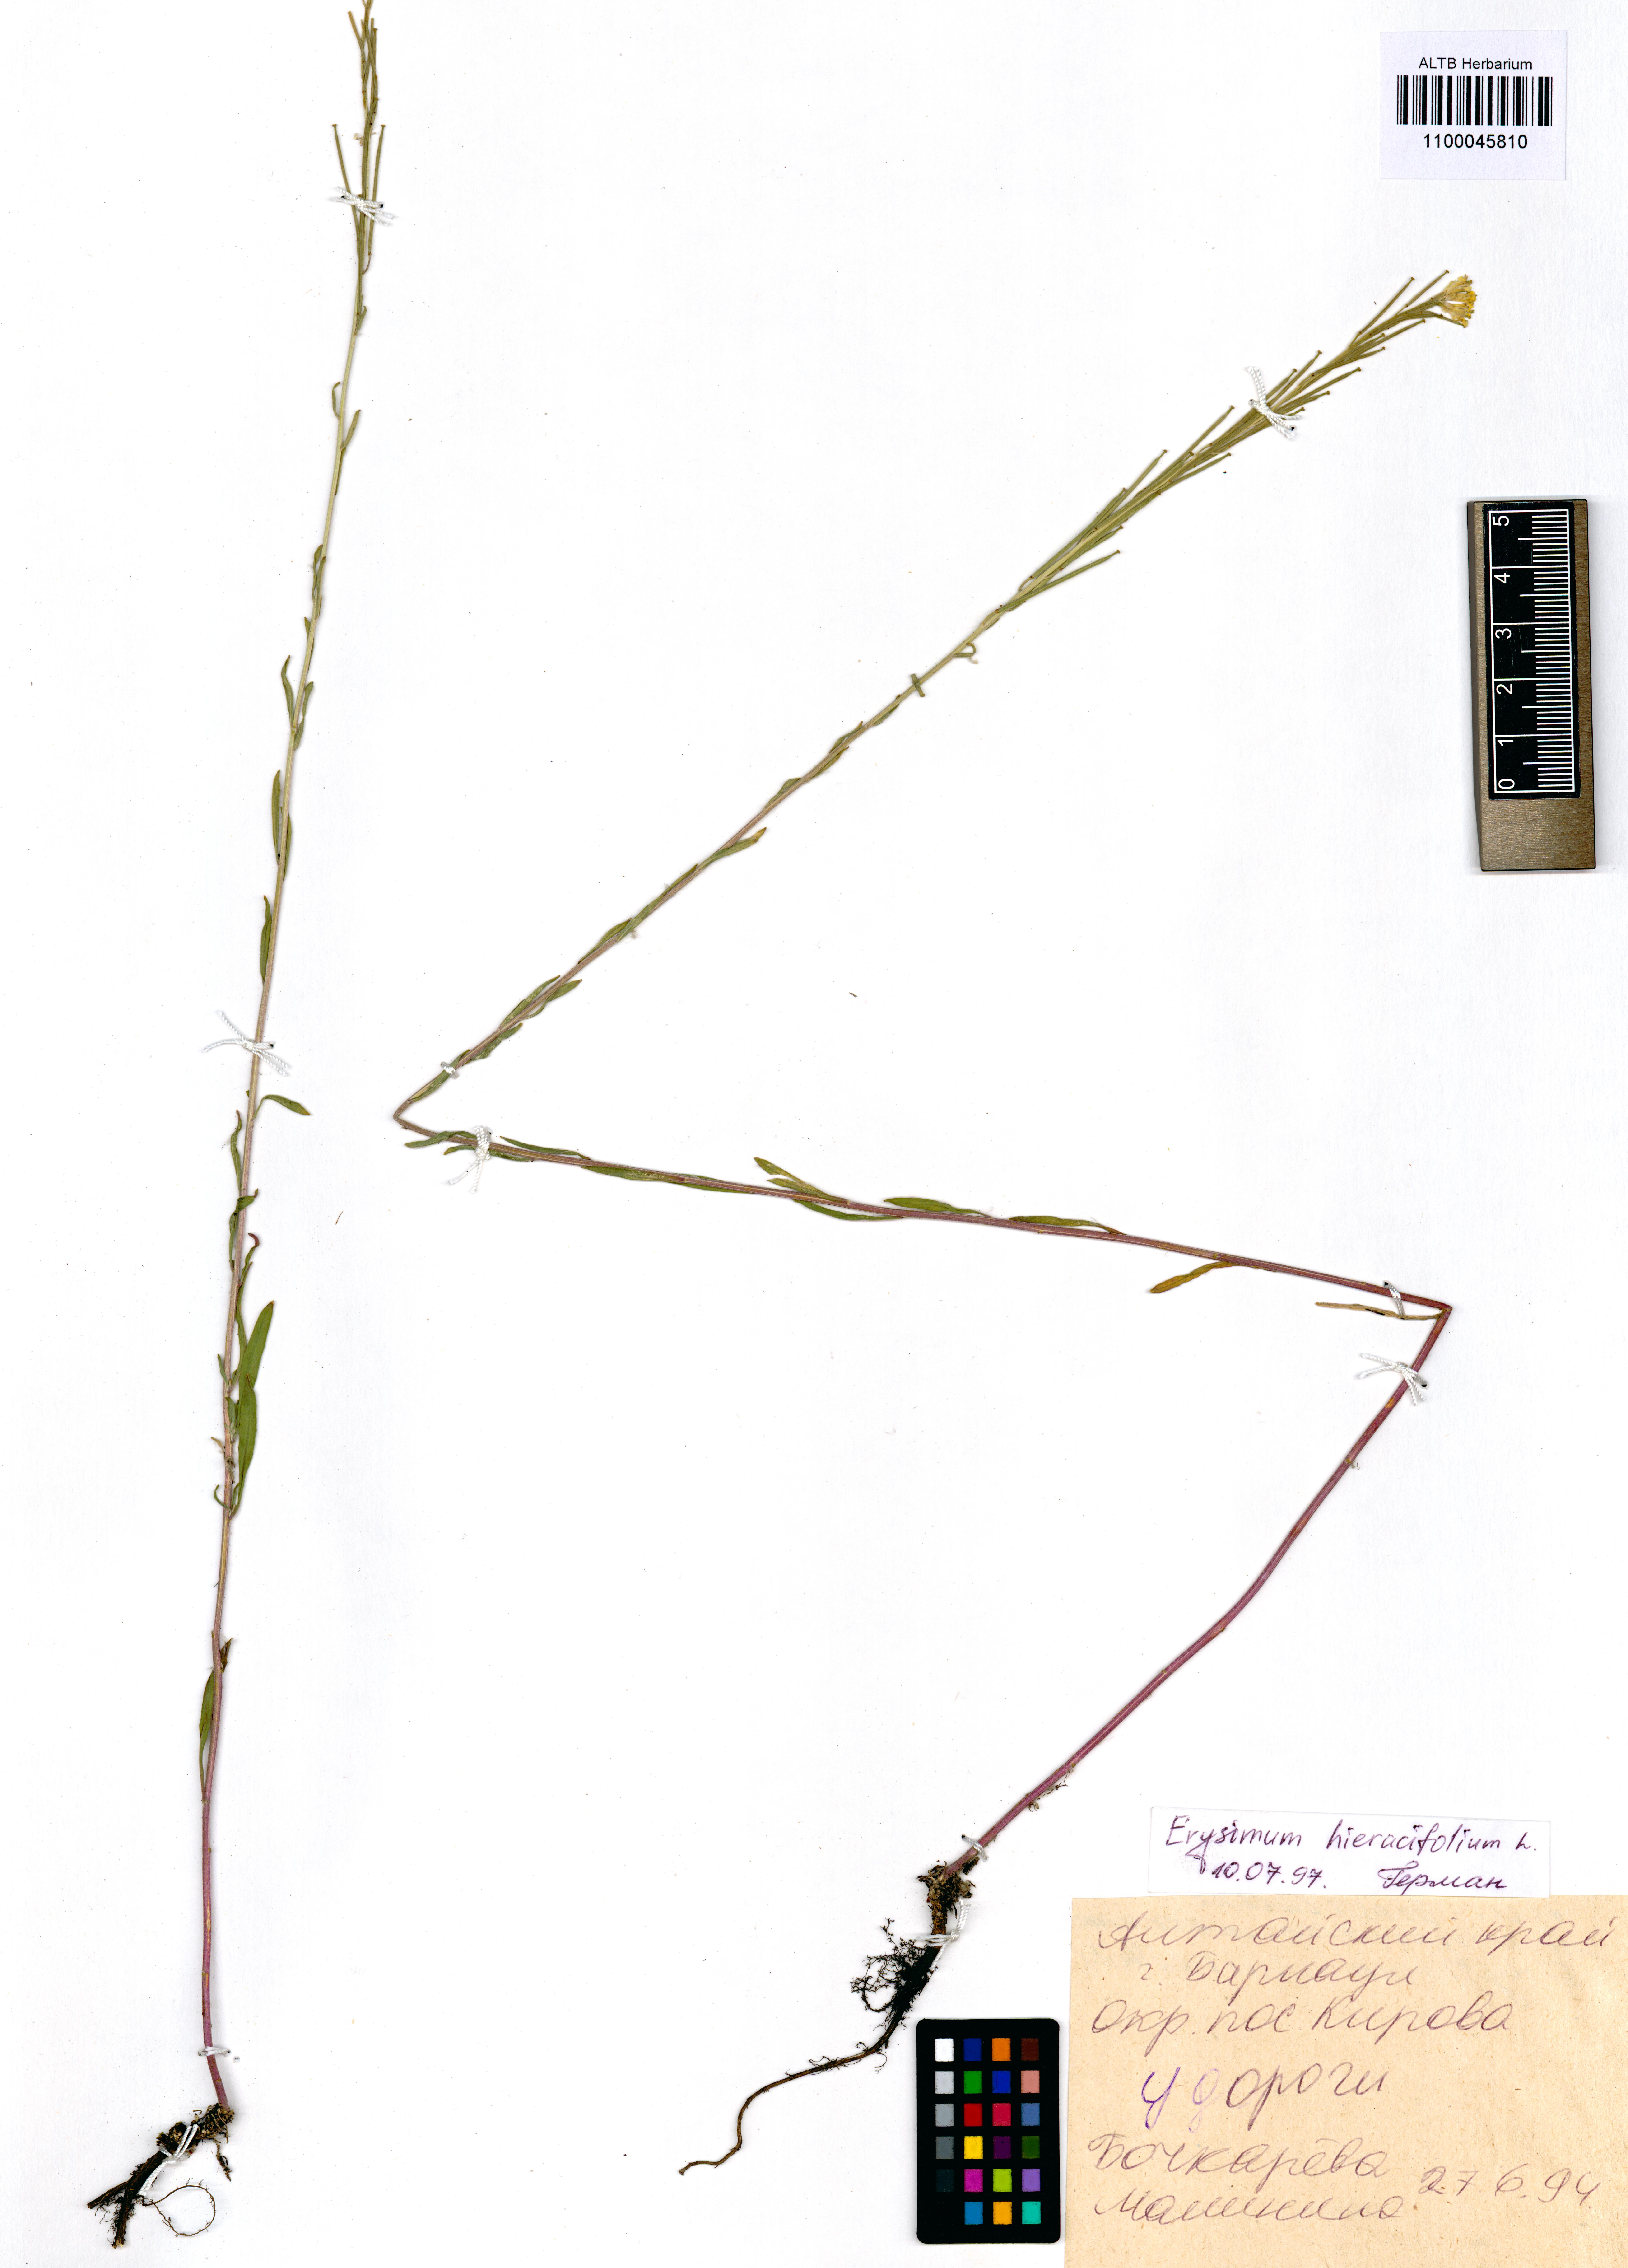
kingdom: Plantae
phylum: Tracheophyta
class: Magnoliopsida
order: Brassicales
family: Brassicaceae
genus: Erysimum
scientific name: Erysimum hieraciifolium
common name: European wallflower
